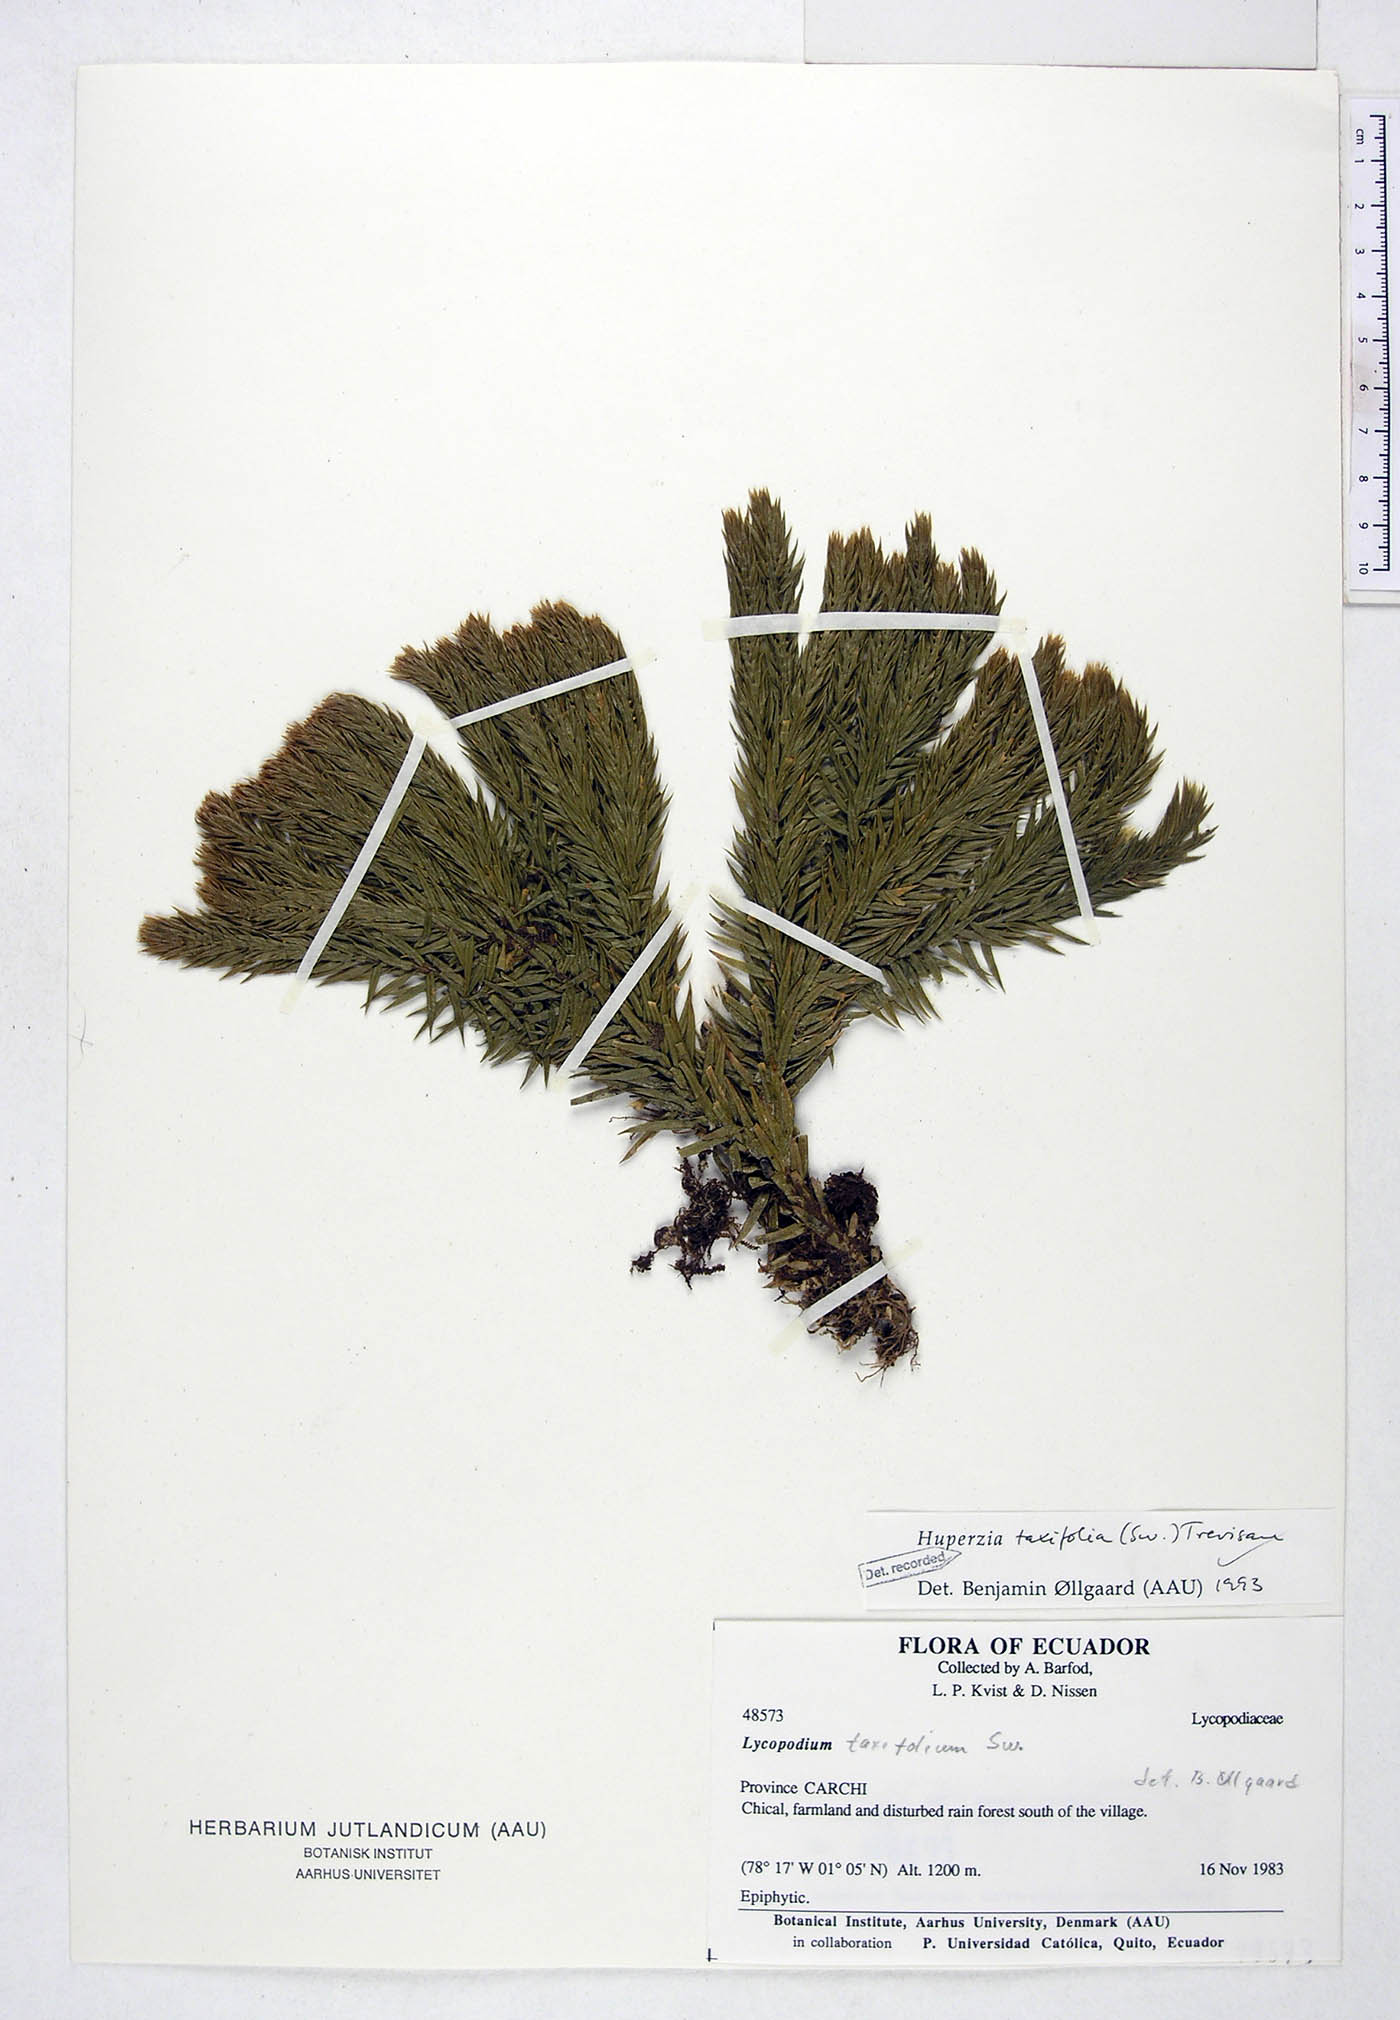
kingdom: Plantae
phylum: Tracheophyta
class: Lycopodiopsida
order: Lycopodiales
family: Lycopodiaceae
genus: Phlegmariurus
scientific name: Phlegmariurus taxifolius
